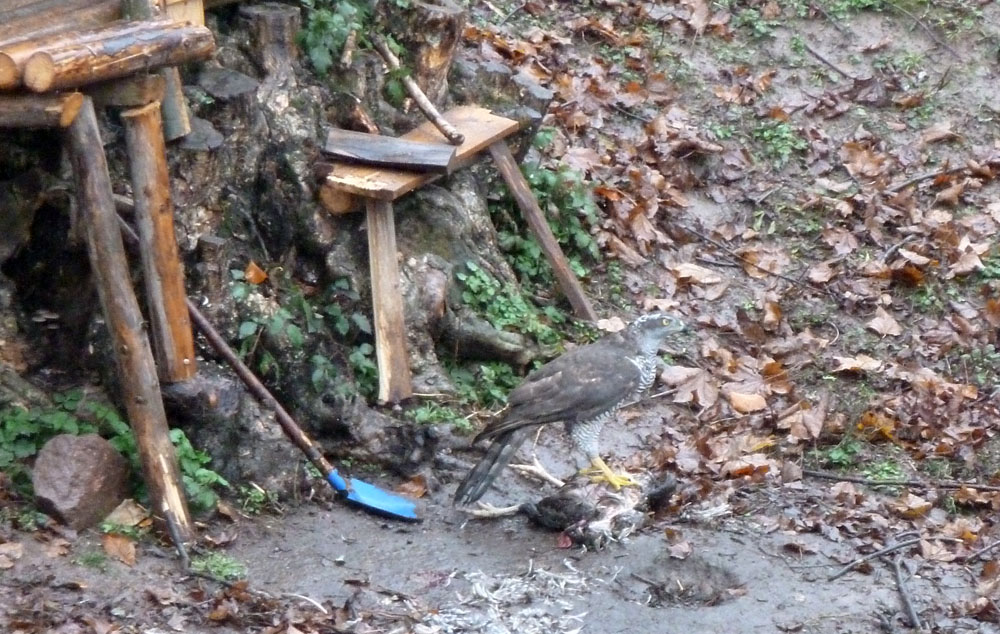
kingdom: Animalia
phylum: Chordata
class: Aves
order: Accipitriformes
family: Accipitridae
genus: Accipiter
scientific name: Accipiter gentilis
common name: Northern goshawk
